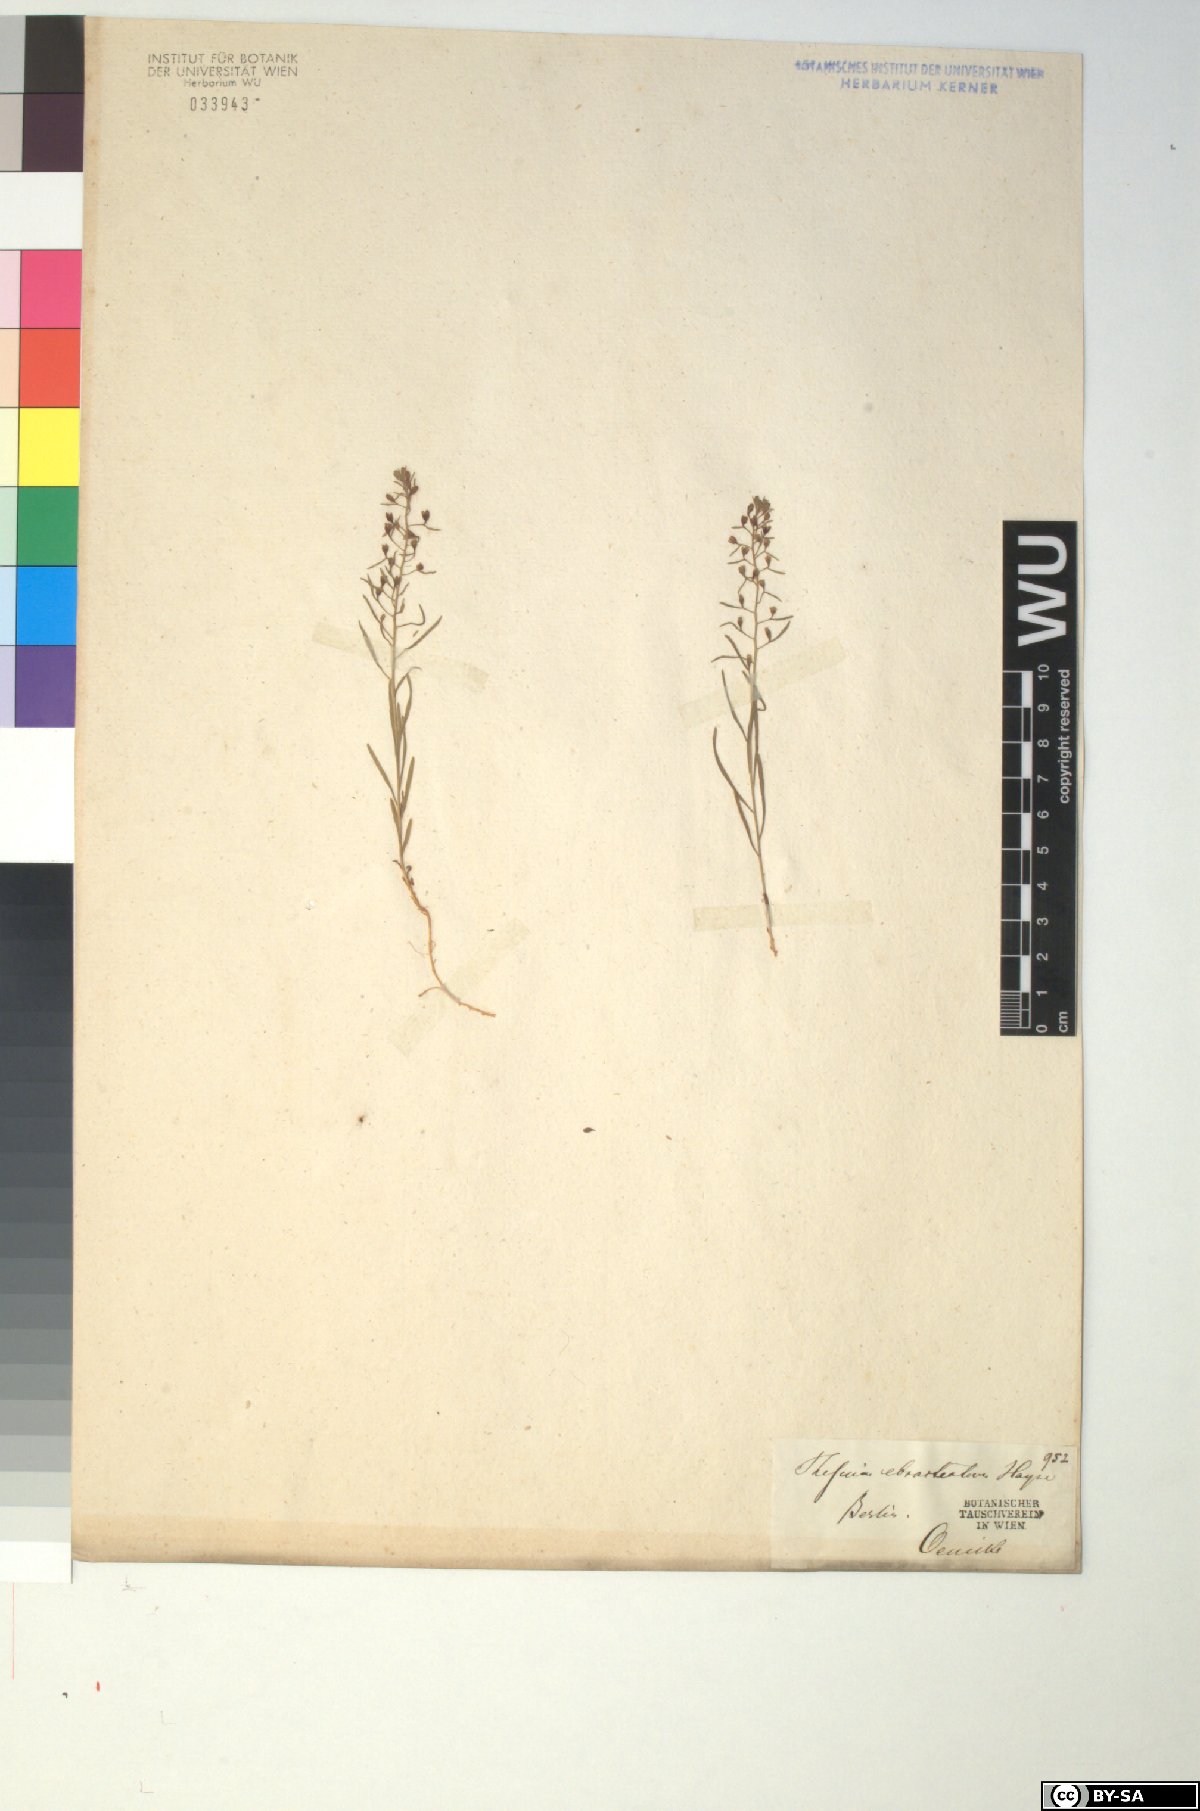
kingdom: Plantae
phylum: Tracheophyta
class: Magnoliopsida
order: Santalales
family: Thesiaceae
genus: Thesium
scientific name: Thesium ebracteatum
